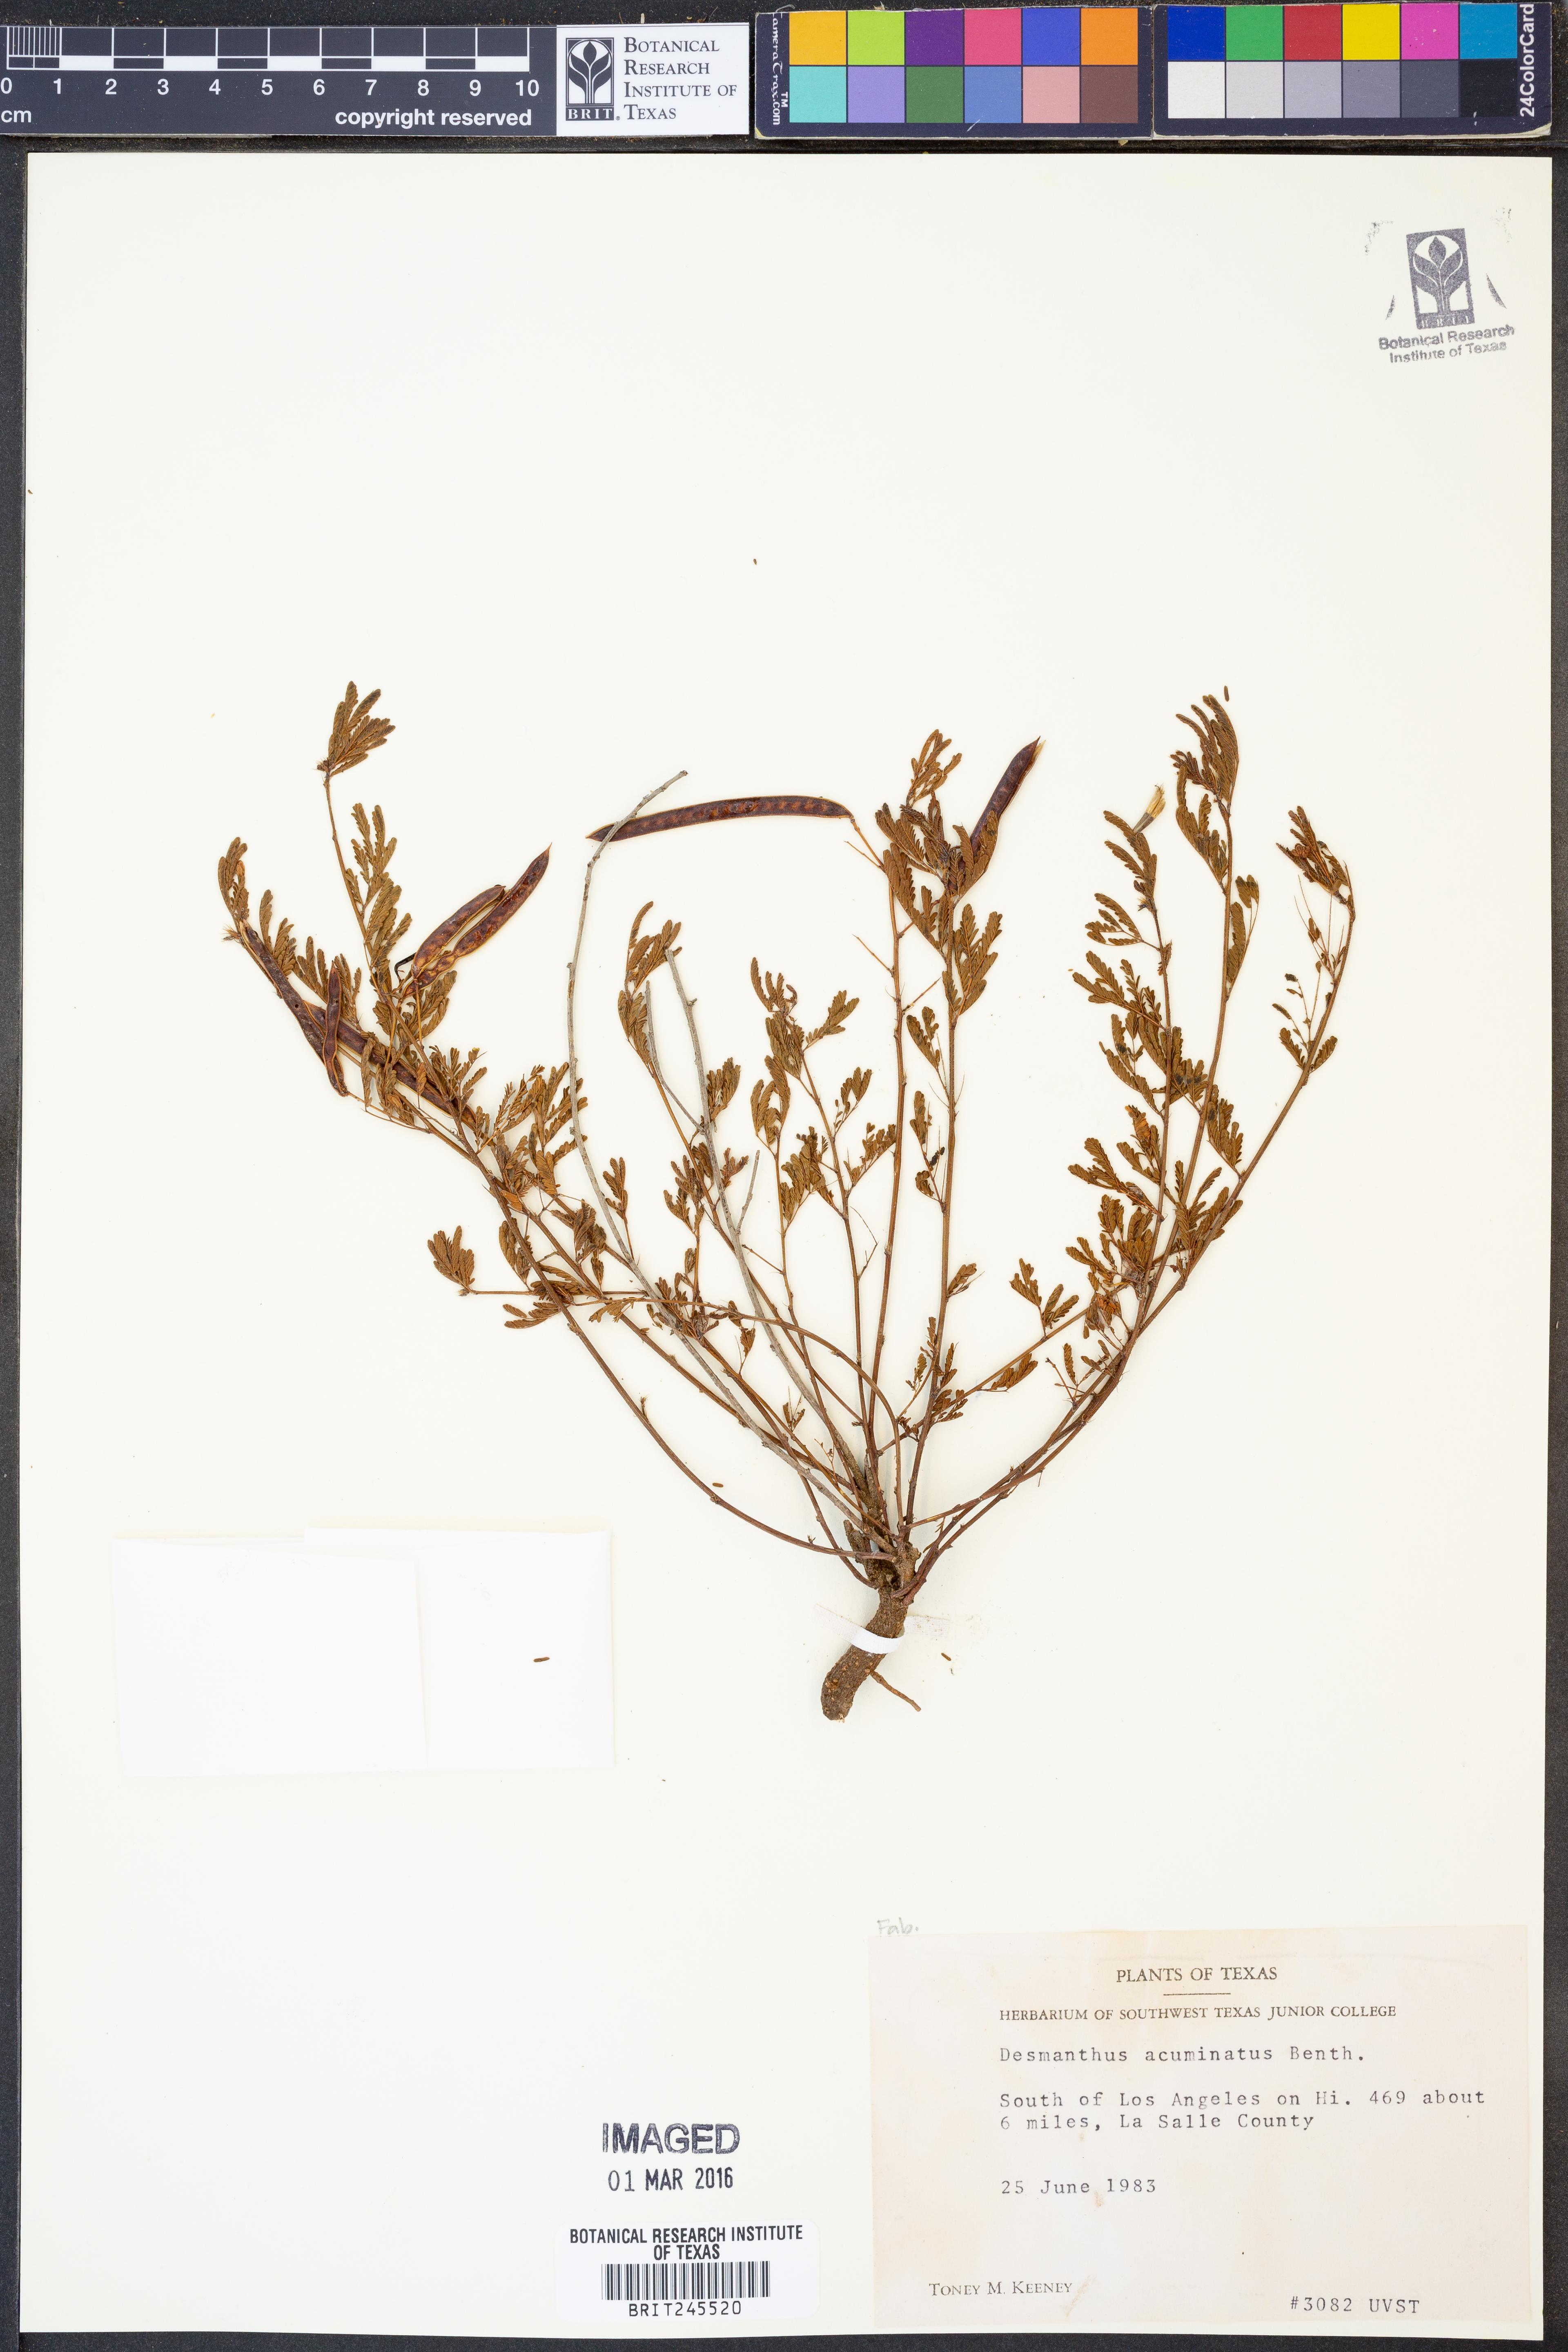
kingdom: Plantae
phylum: Tracheophyta
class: Magnoliopsida
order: Fabales
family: Fabaceae
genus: Desmanthus
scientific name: Desmanthus acuminatus
